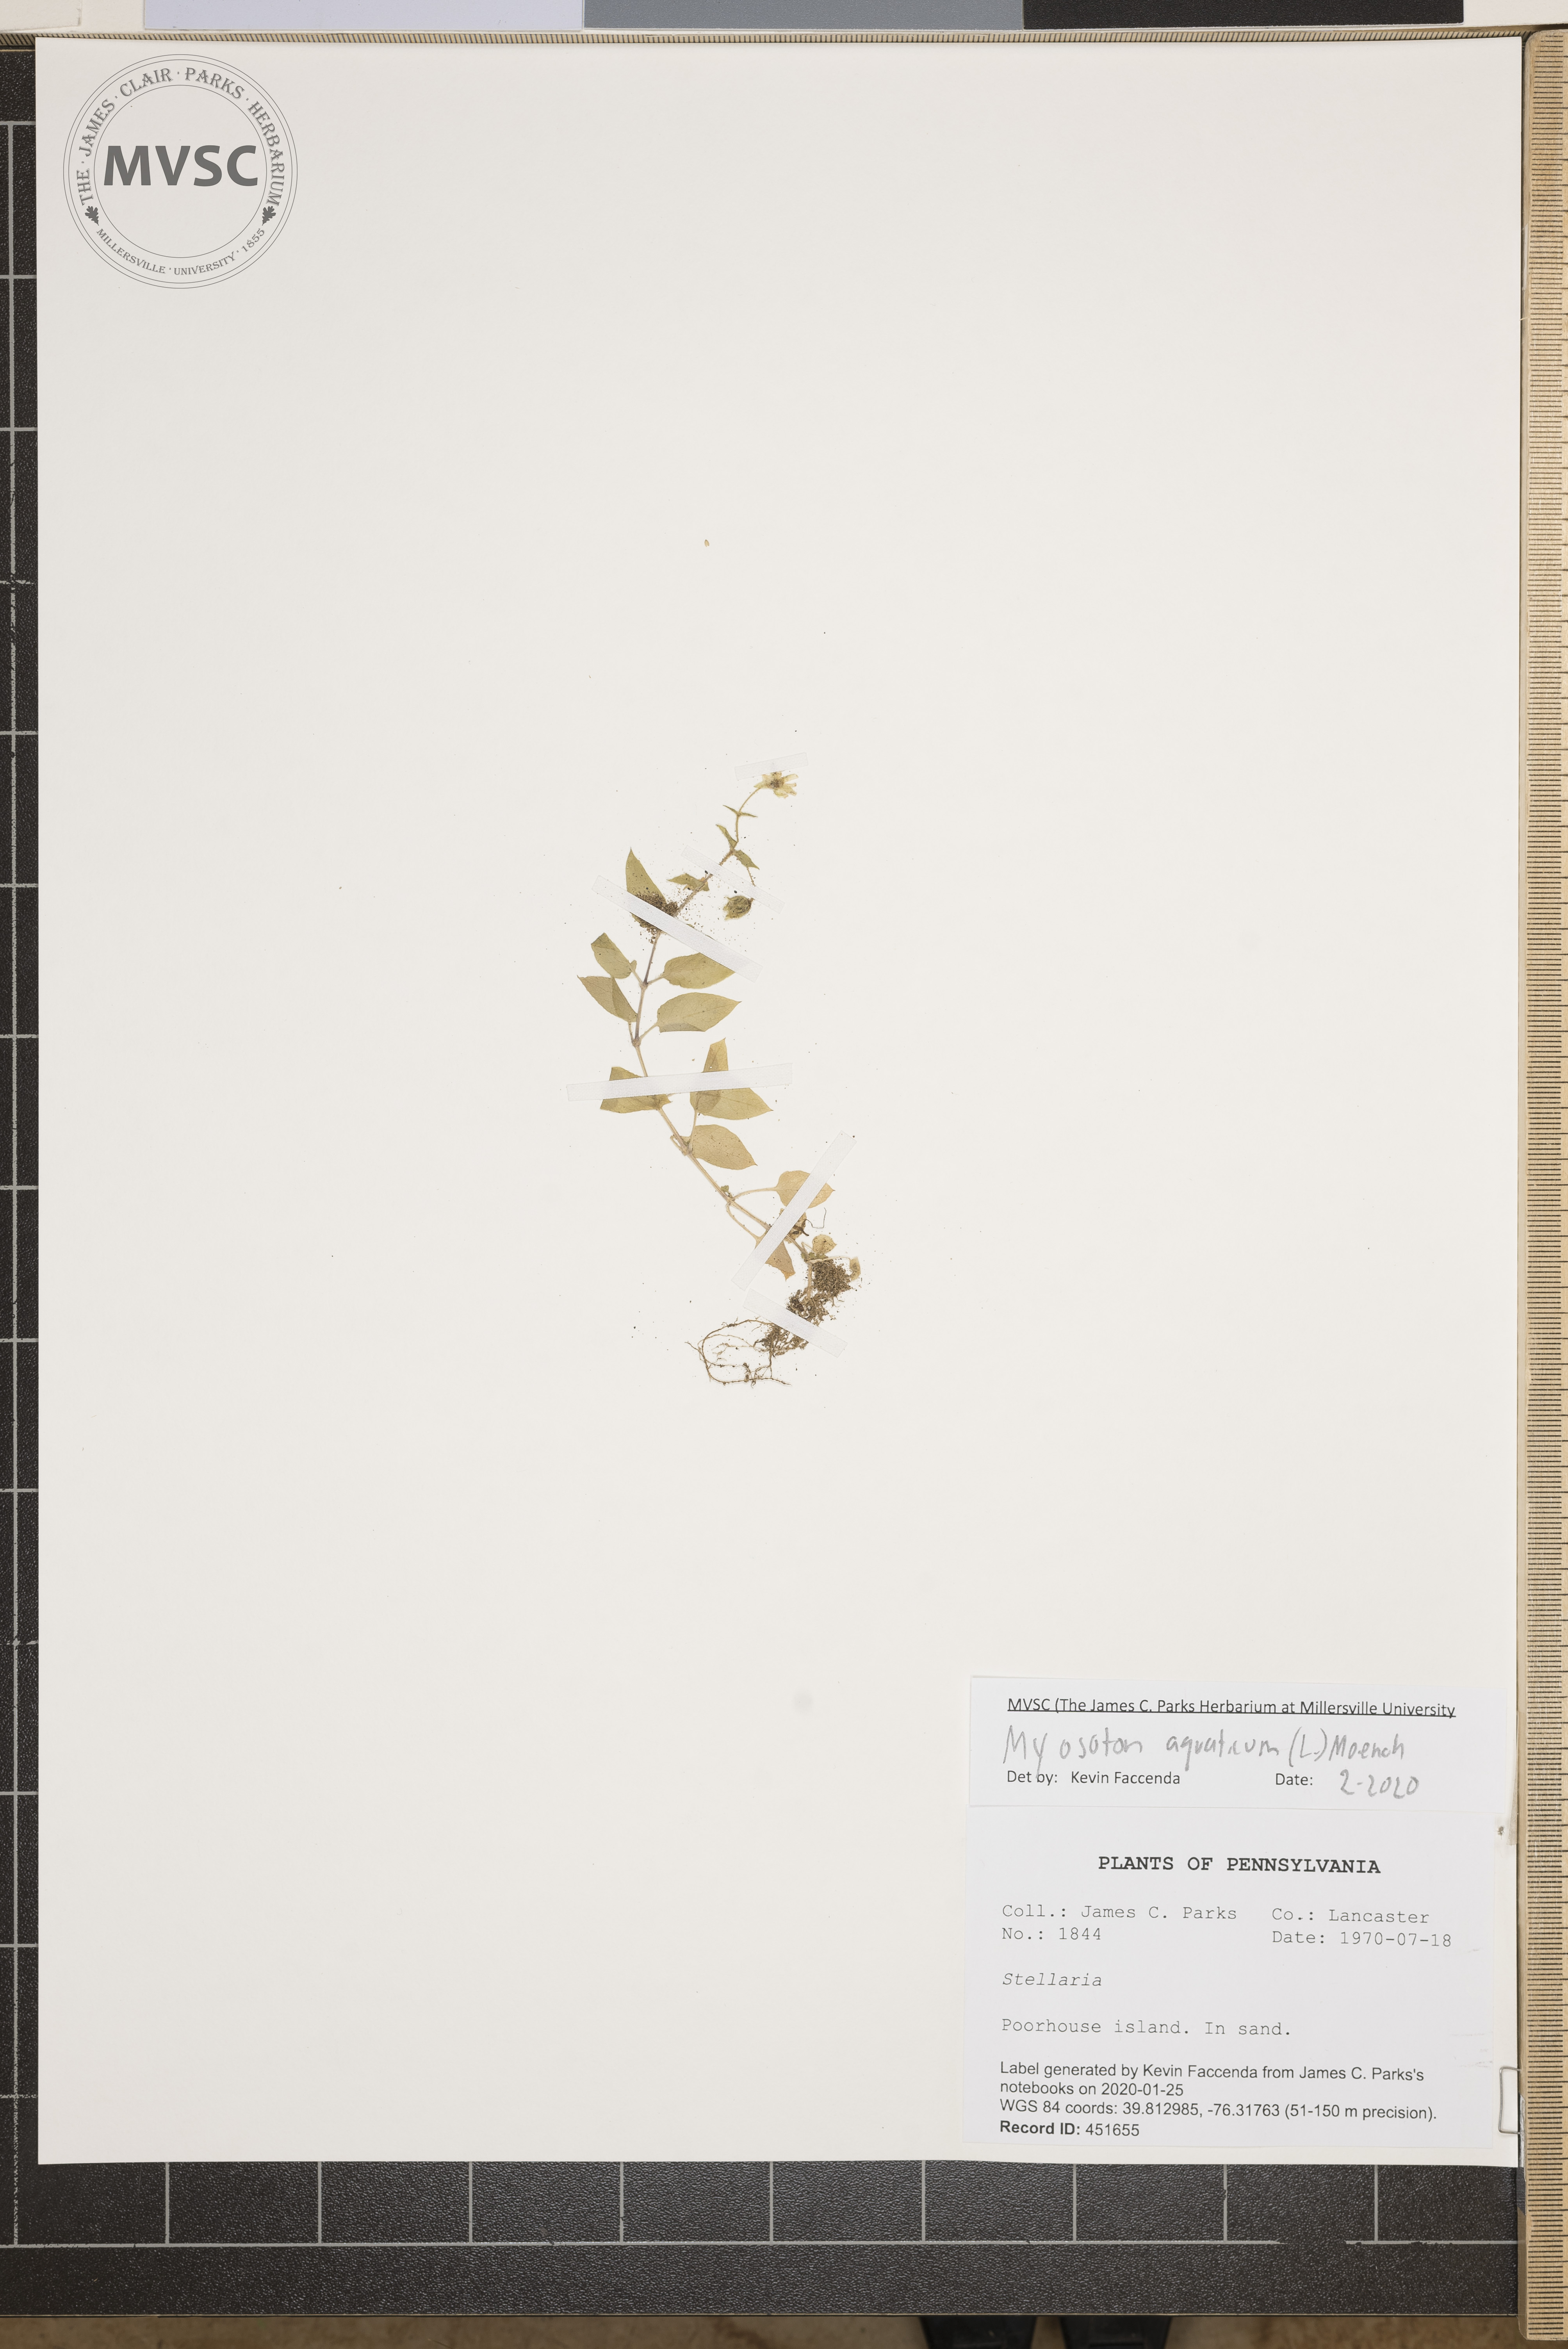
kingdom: Plantae
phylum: Tracheophyta
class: Magnoliopsida
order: Caryophyllales
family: Caryophyllaceae
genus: Stellaria
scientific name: Stellaria aquatica
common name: Water chickweed
